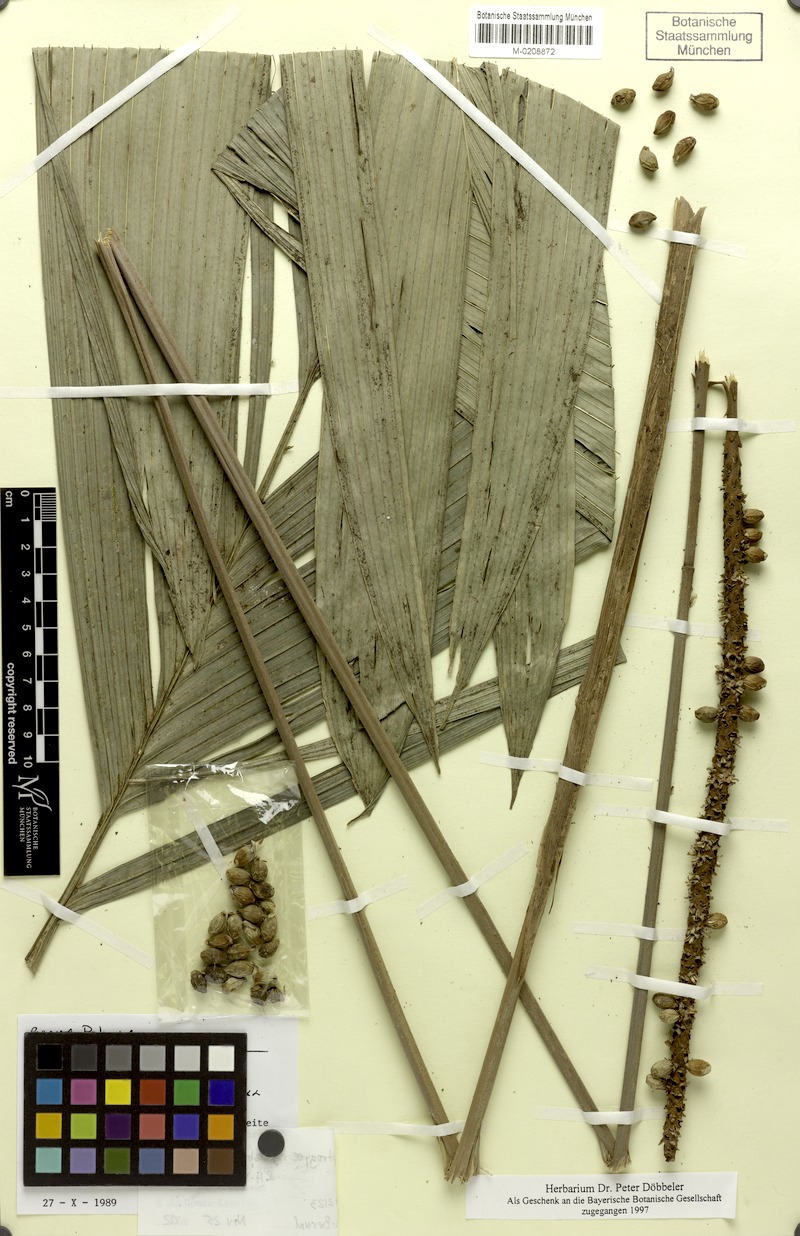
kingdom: Plantae
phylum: Tracheophyta
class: Liliopsida
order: Arecales
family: Arecaceae
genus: Calyptrogyne
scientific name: Calyptrogyne ghiesbreghtiana
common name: Coligallo
